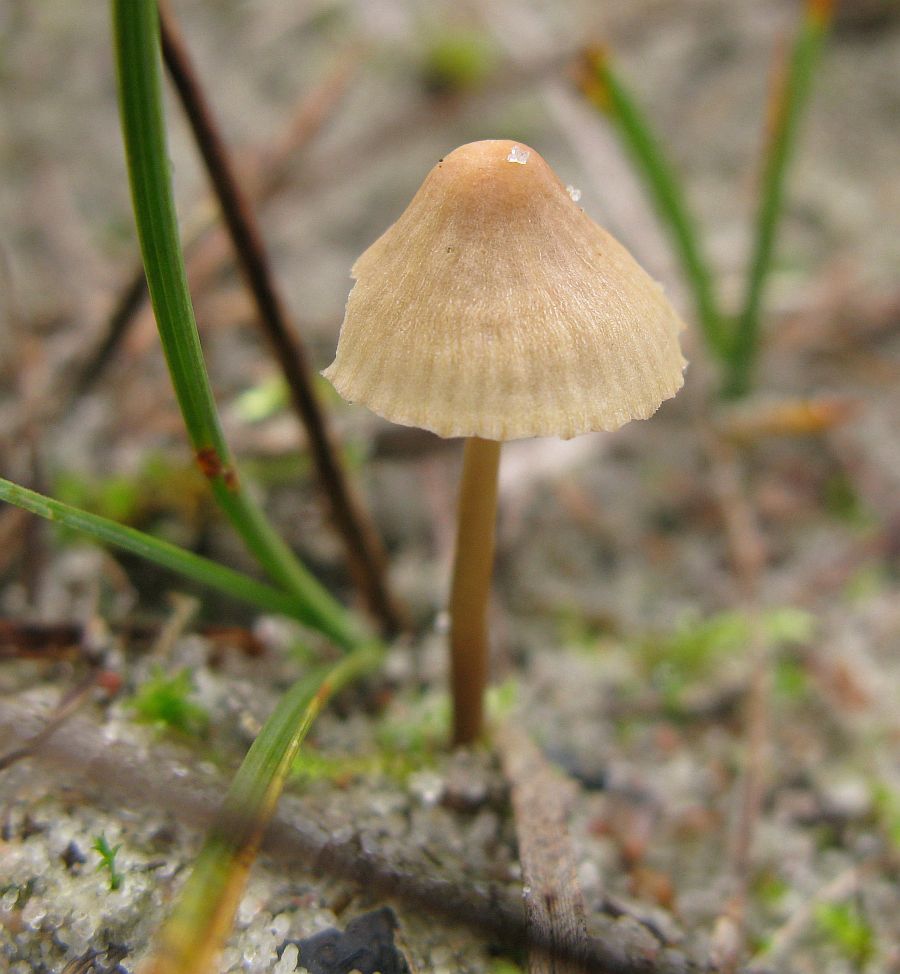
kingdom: Fungi
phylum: Basidiomycota
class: Agaricomycetes
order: Agaricales
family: Mycenaceae
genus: Mycena
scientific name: Mycena olivaceomarginata
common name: brunægget huesvamp
